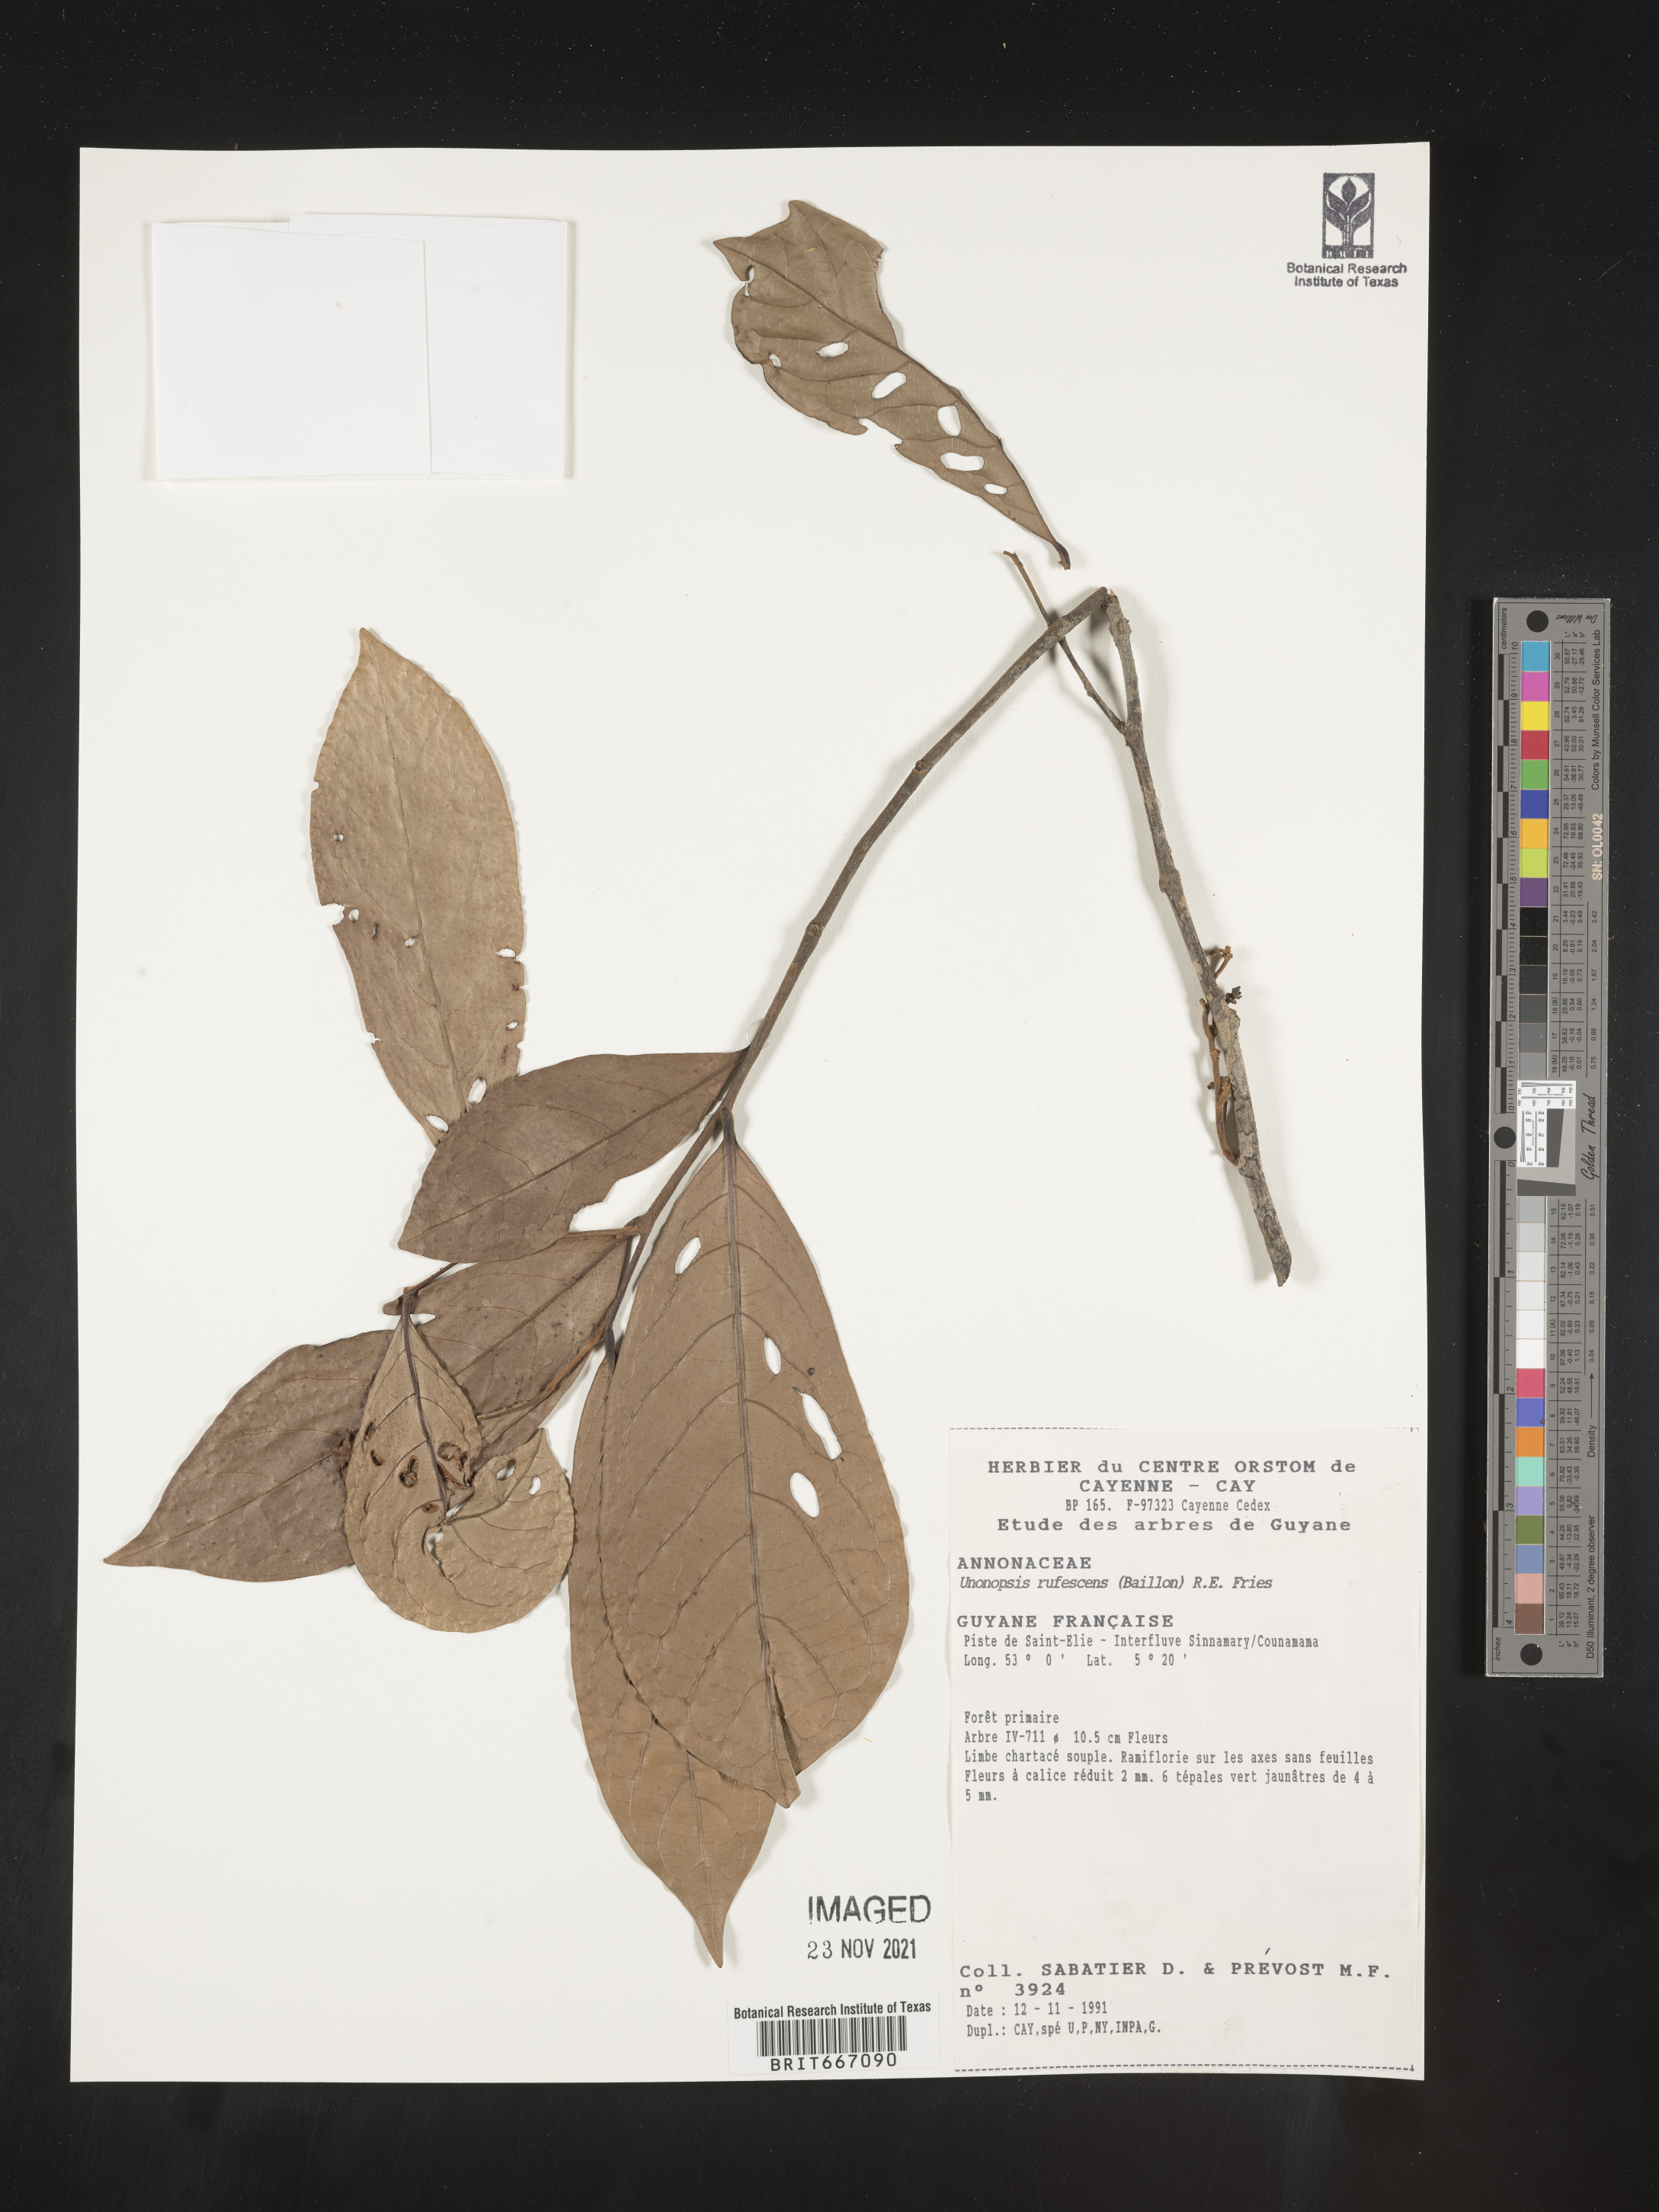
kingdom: Plantae
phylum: Tracheophyta
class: Magnoliopsida
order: Magnoliales
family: Annonaceae
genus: Unonopsis
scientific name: Unonopsis
